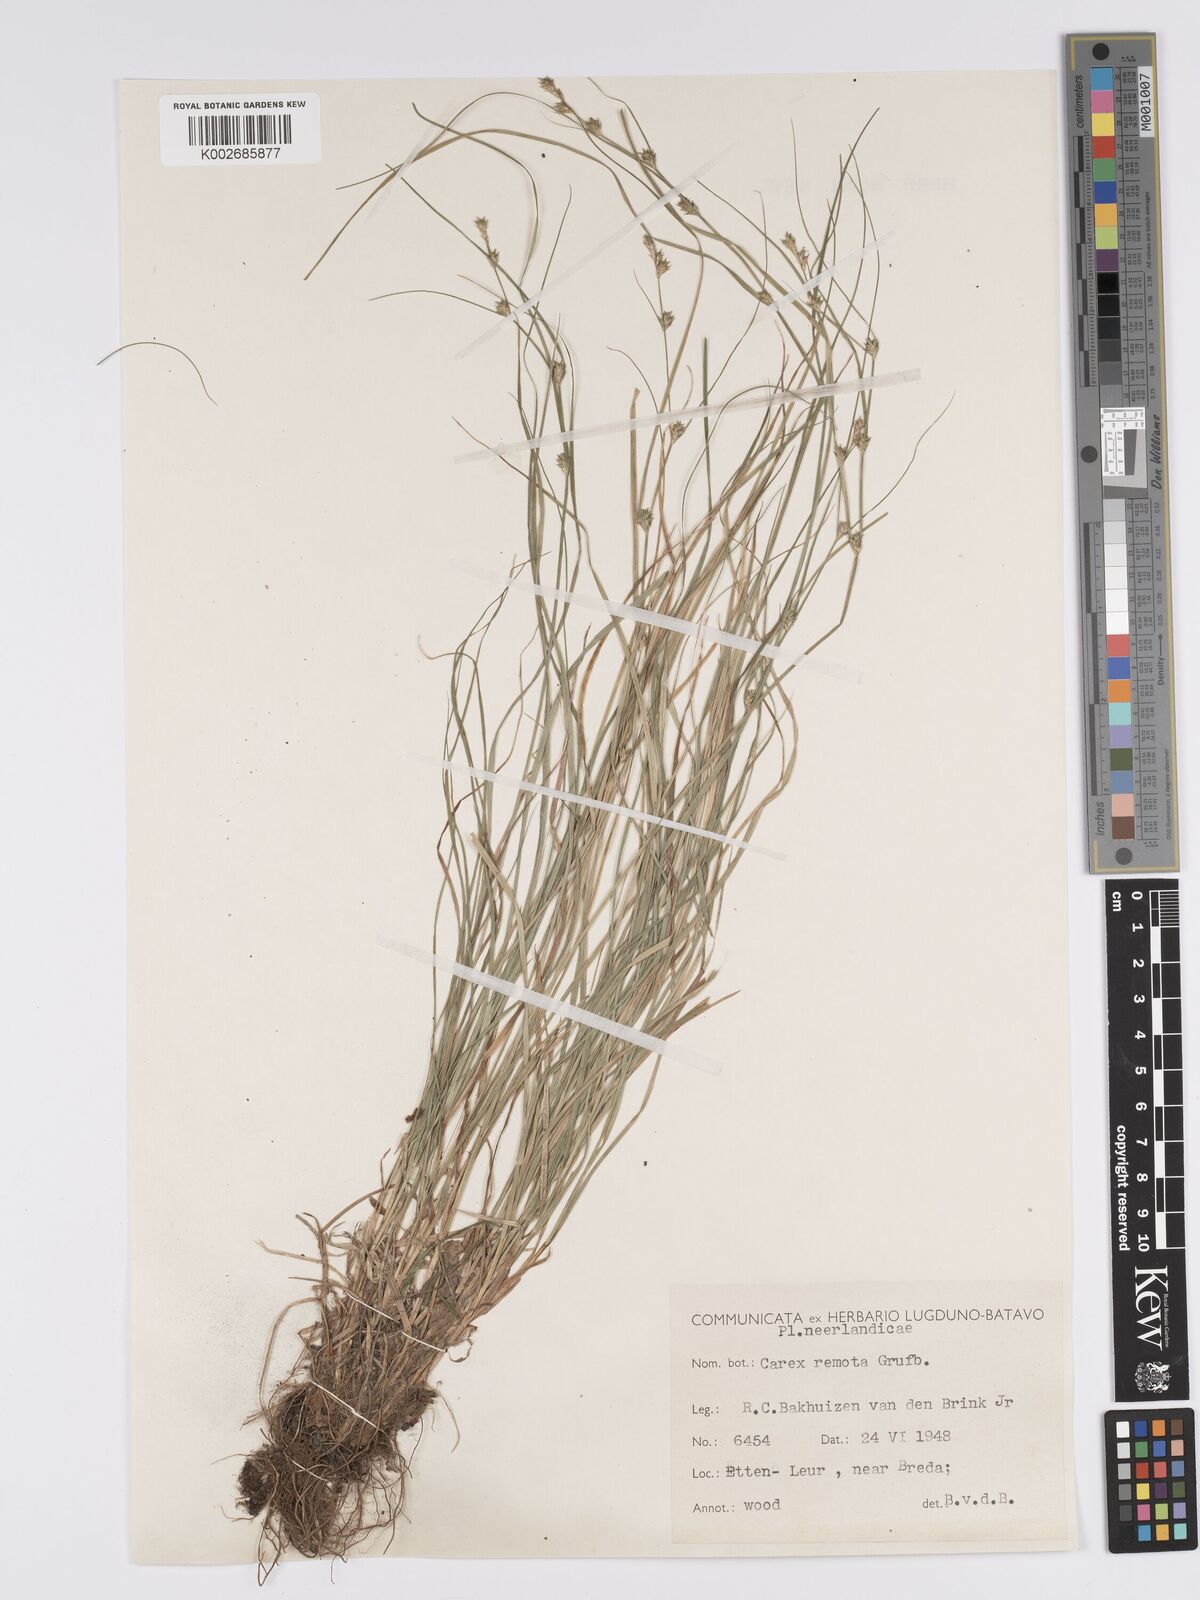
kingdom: Plantae
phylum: Tracheophyta
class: Liliopsida
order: Poales
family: Cyperaceae
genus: Carex
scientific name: Carex remota
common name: Remote sedge
